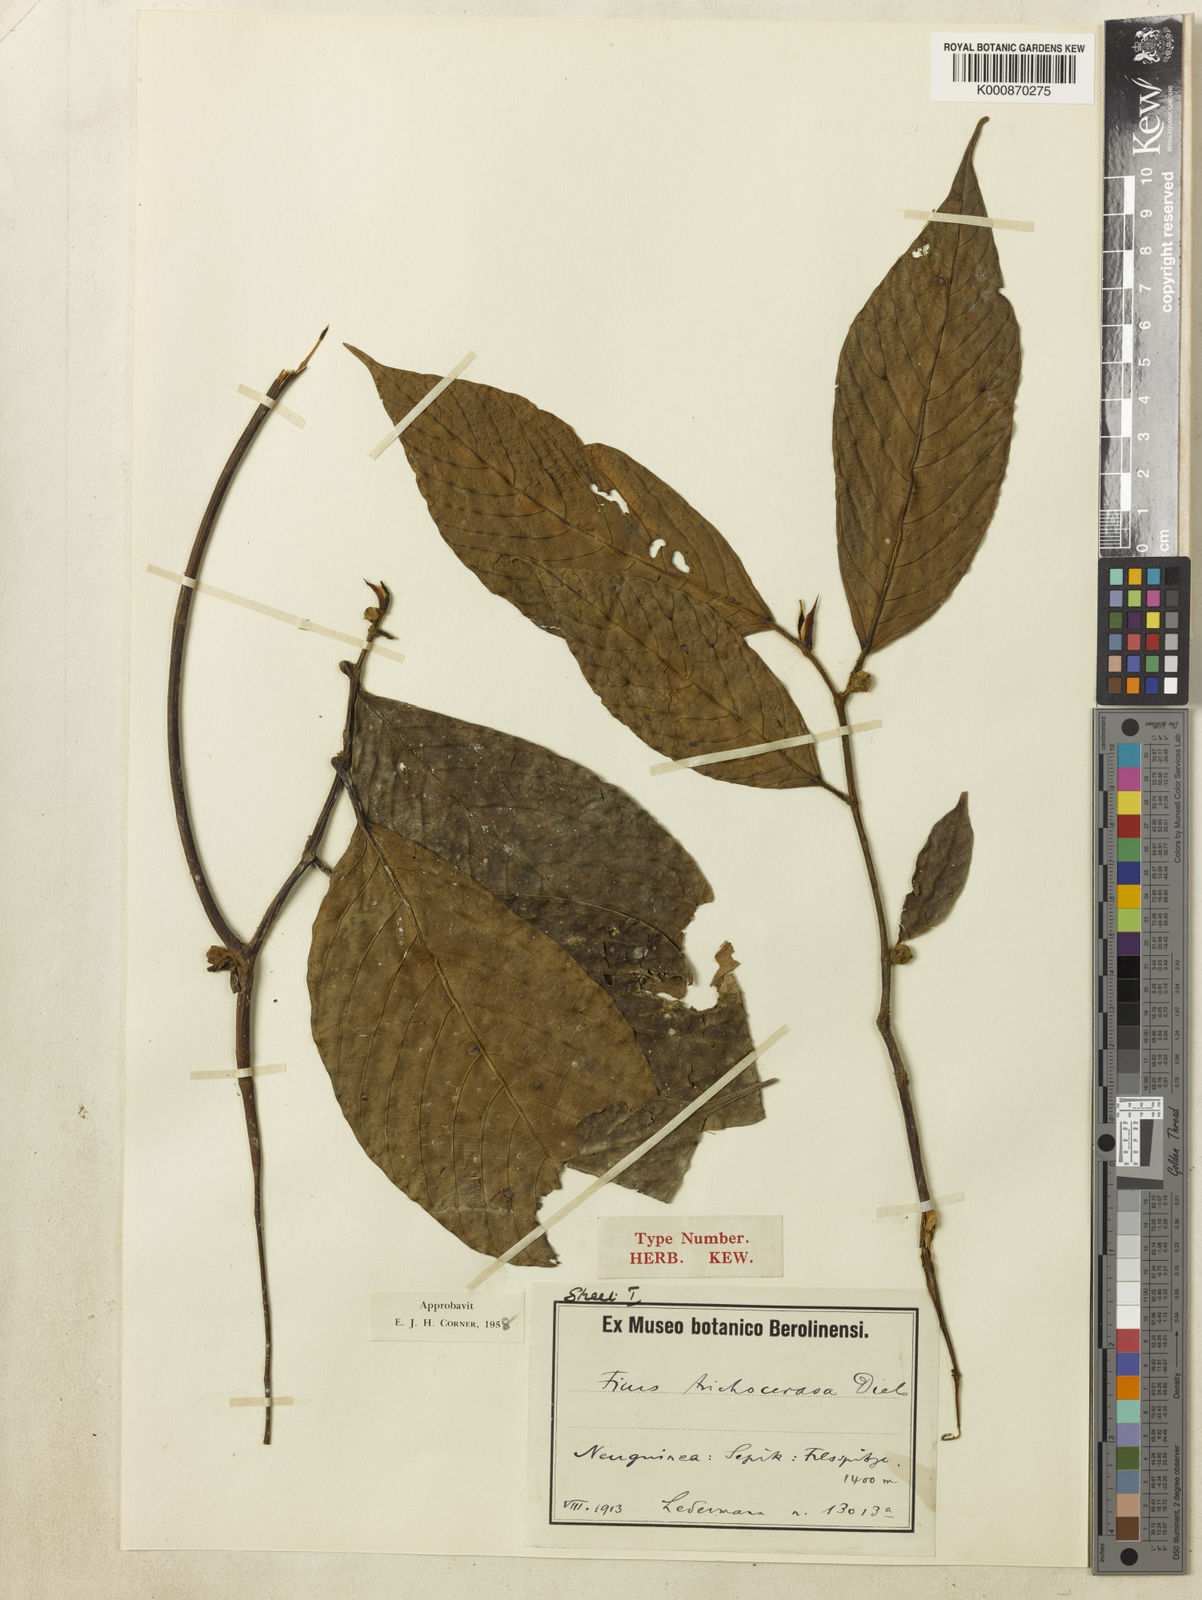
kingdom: Plantae
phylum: Tracheophyta
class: Magnoliopsida
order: Rosales
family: Moraceae
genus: Ficus
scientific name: Ficus trichocerasa
